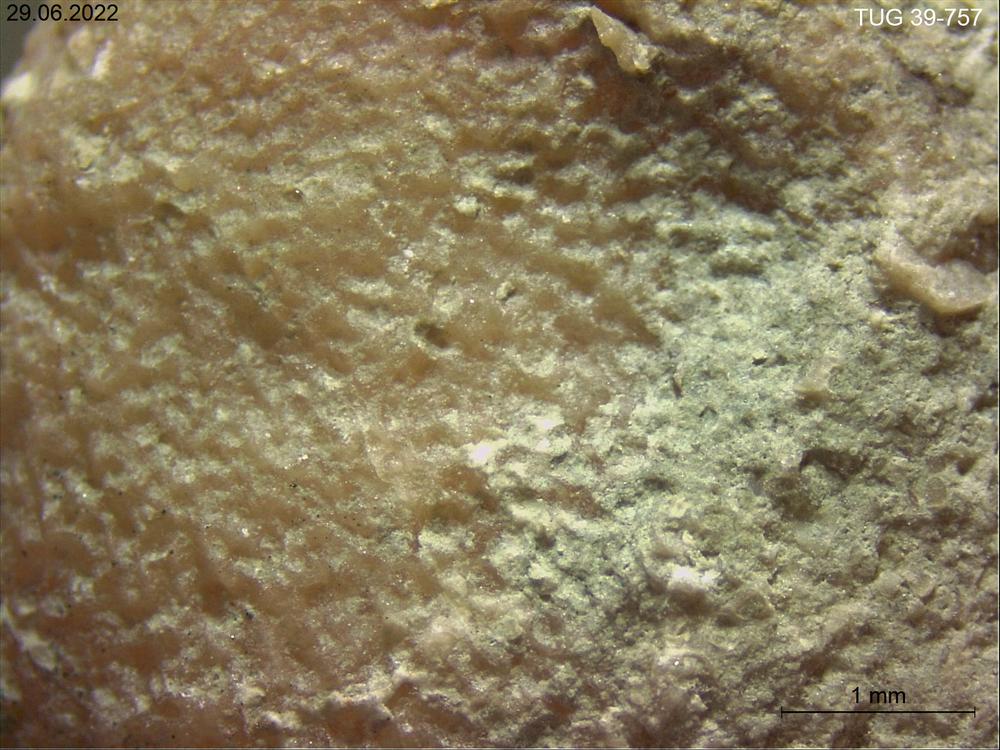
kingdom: Animalia
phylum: Bryozoa
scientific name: Bryozoa
